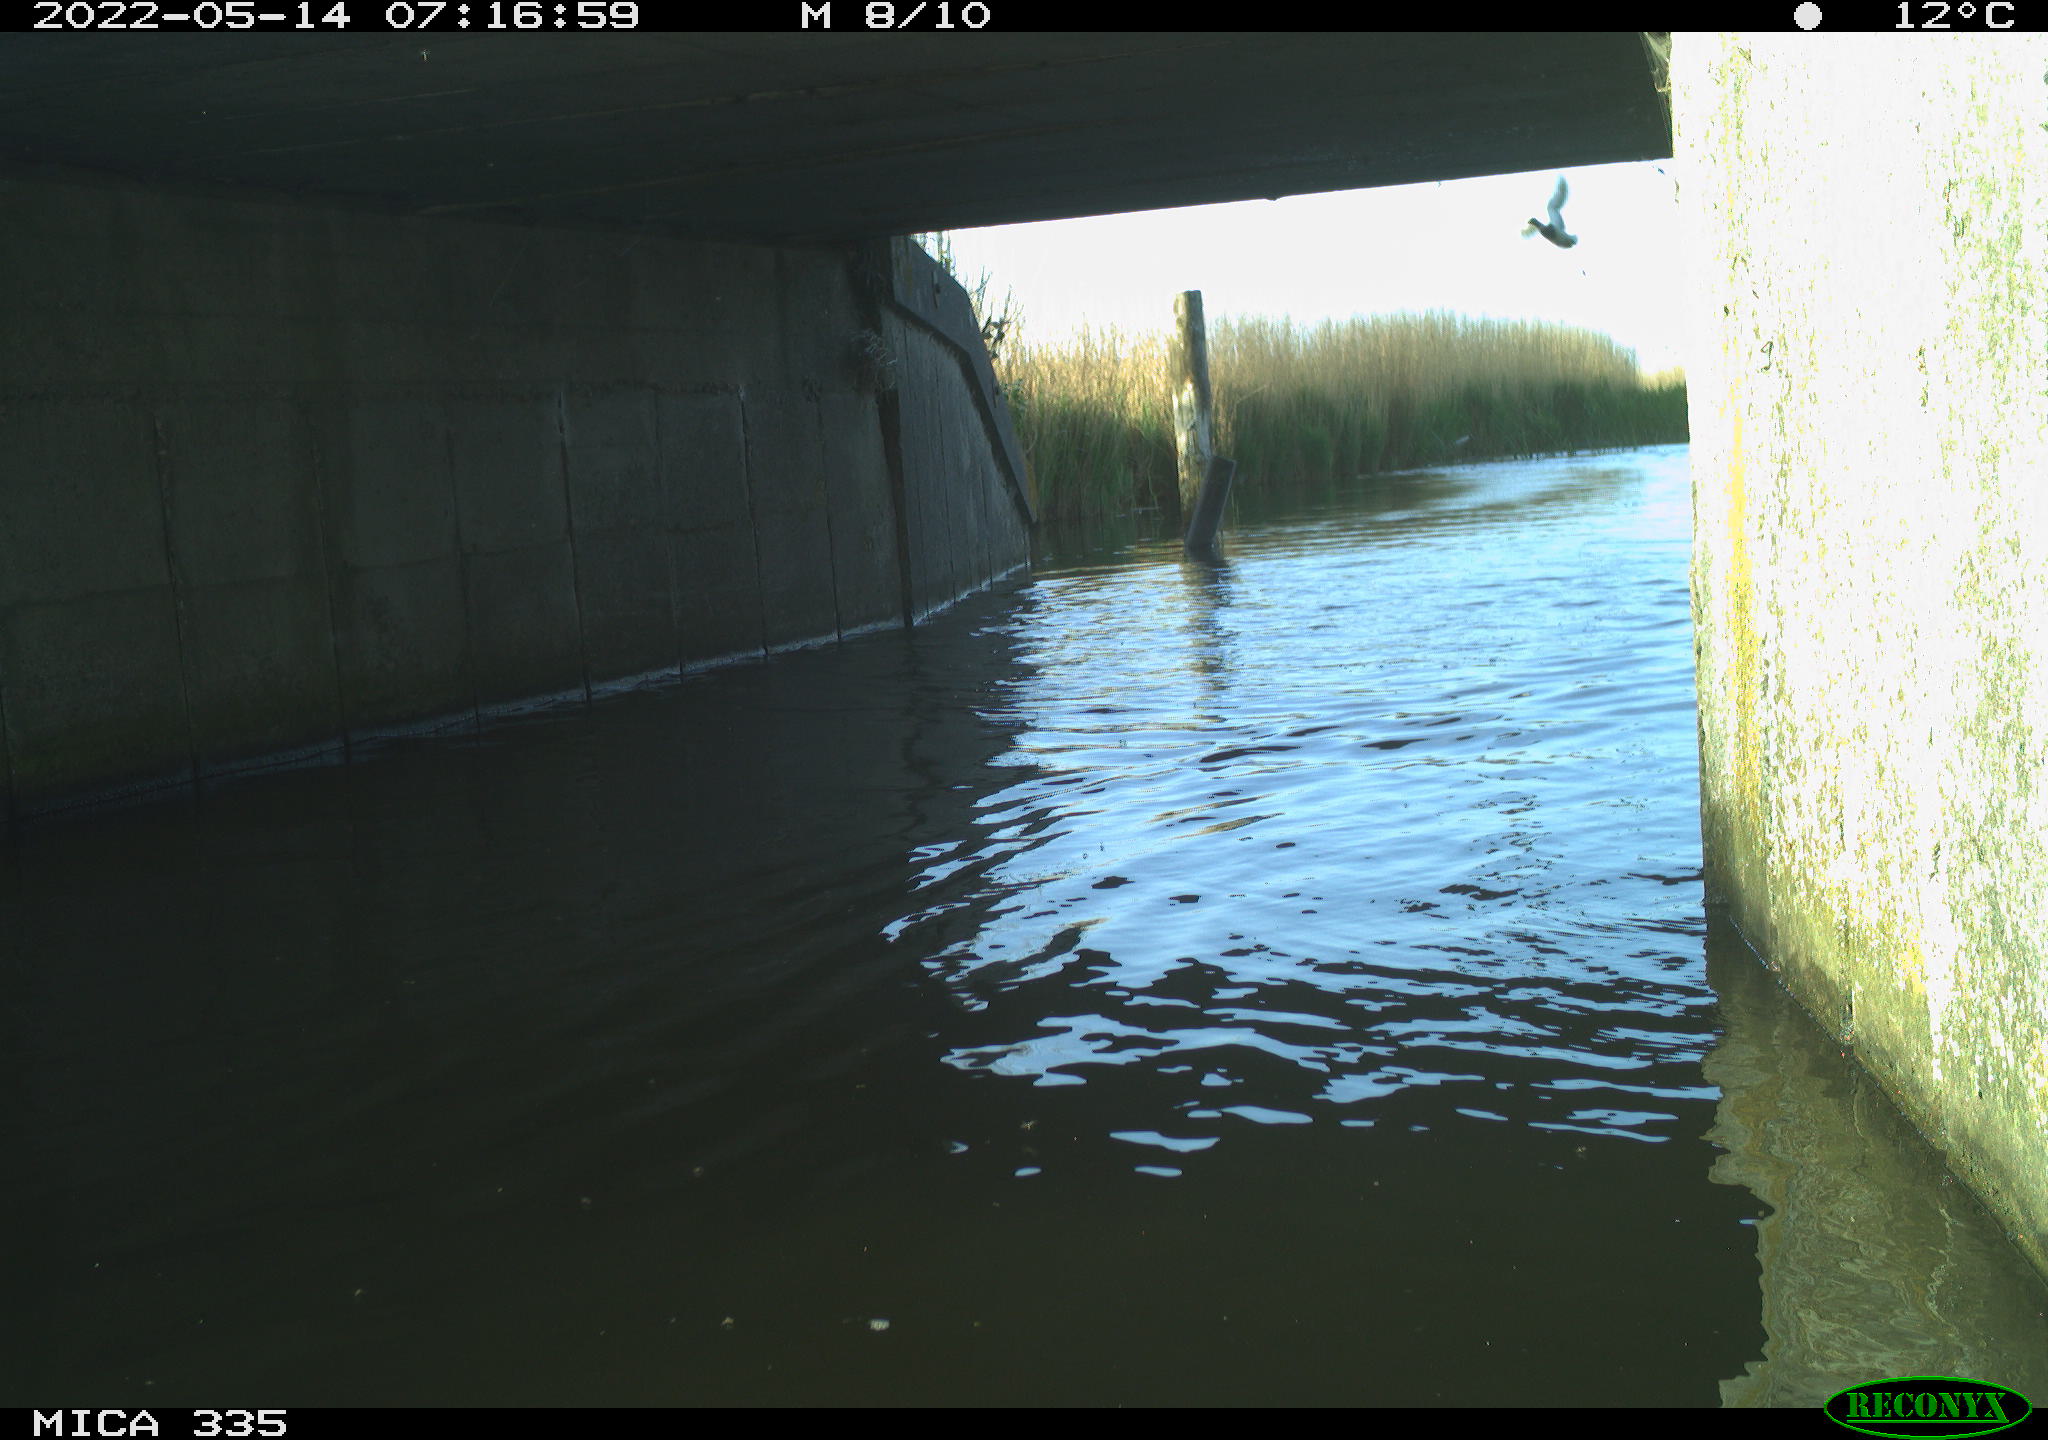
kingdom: Animalia
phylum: Chordata
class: Aves
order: Anseriformes
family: Anatidae
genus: Anas
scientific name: Anas platyrhynchos
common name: Mallard
